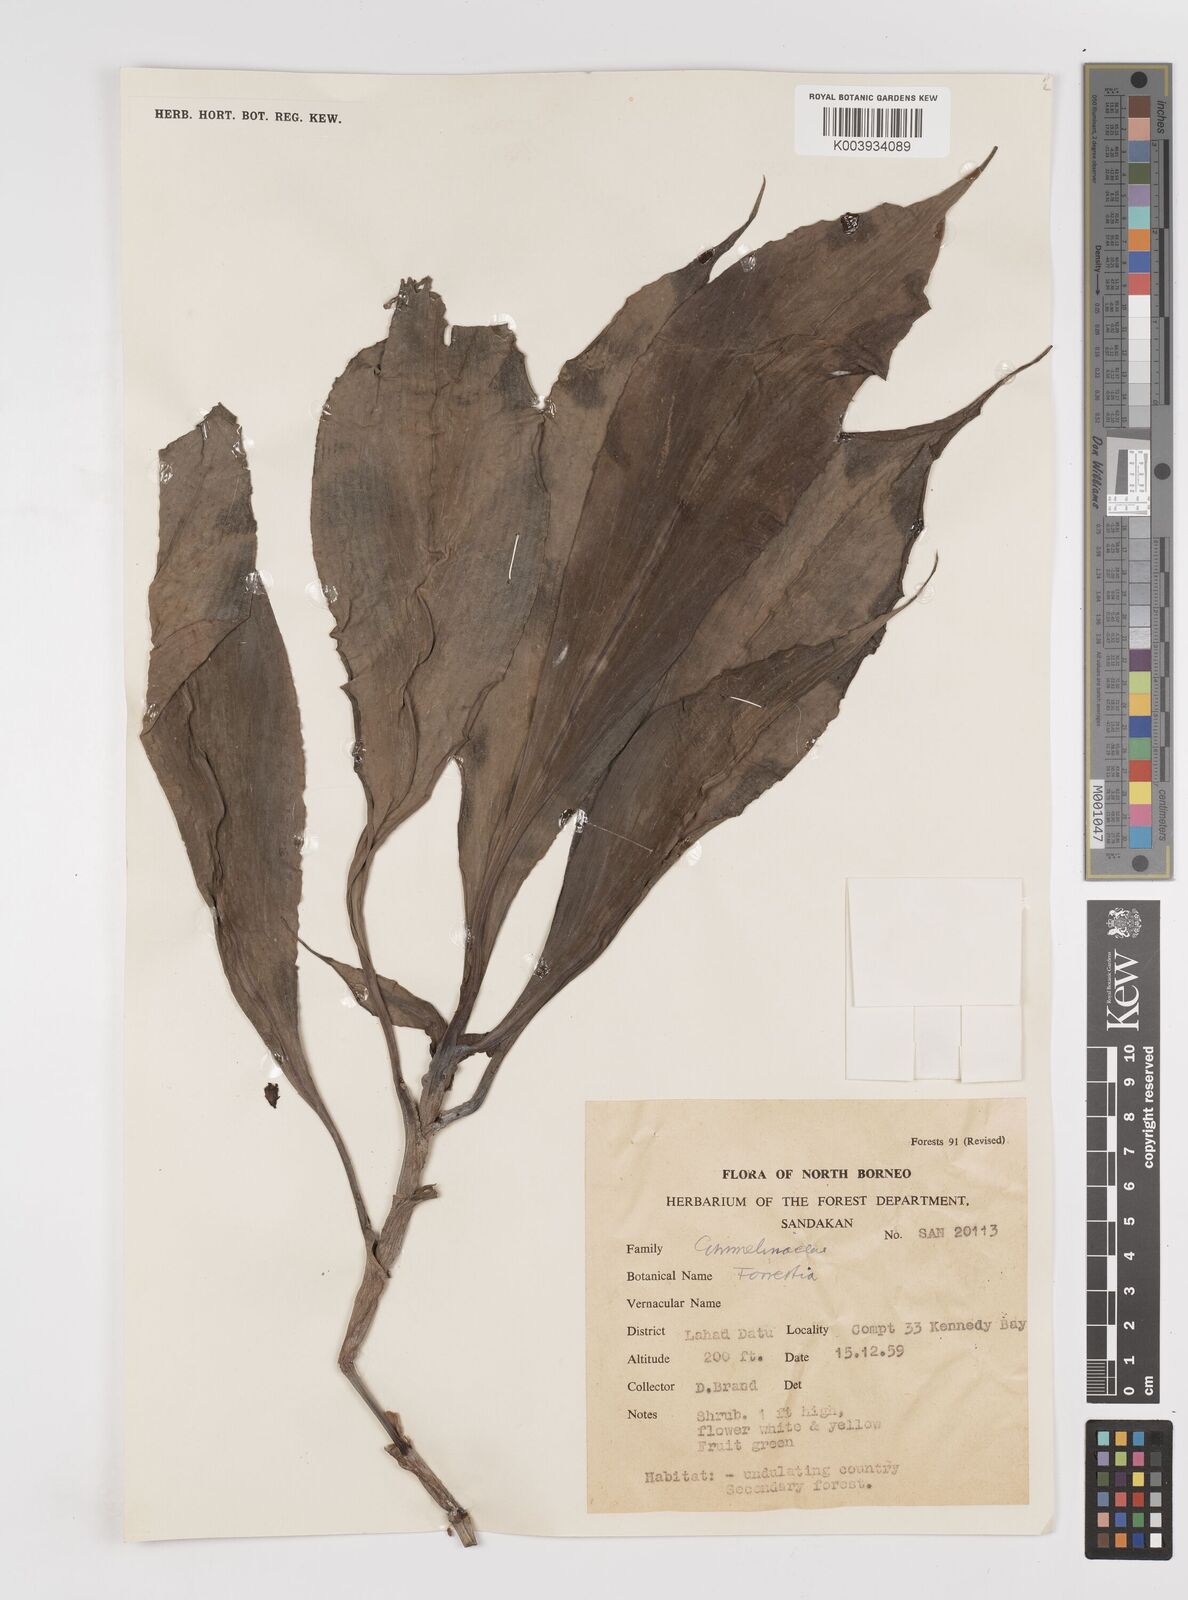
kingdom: Plantae
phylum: Tracheophyta
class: Liliopsida
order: Commelinales
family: Commelinaceae
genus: Amischotolype
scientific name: Amischotolype
